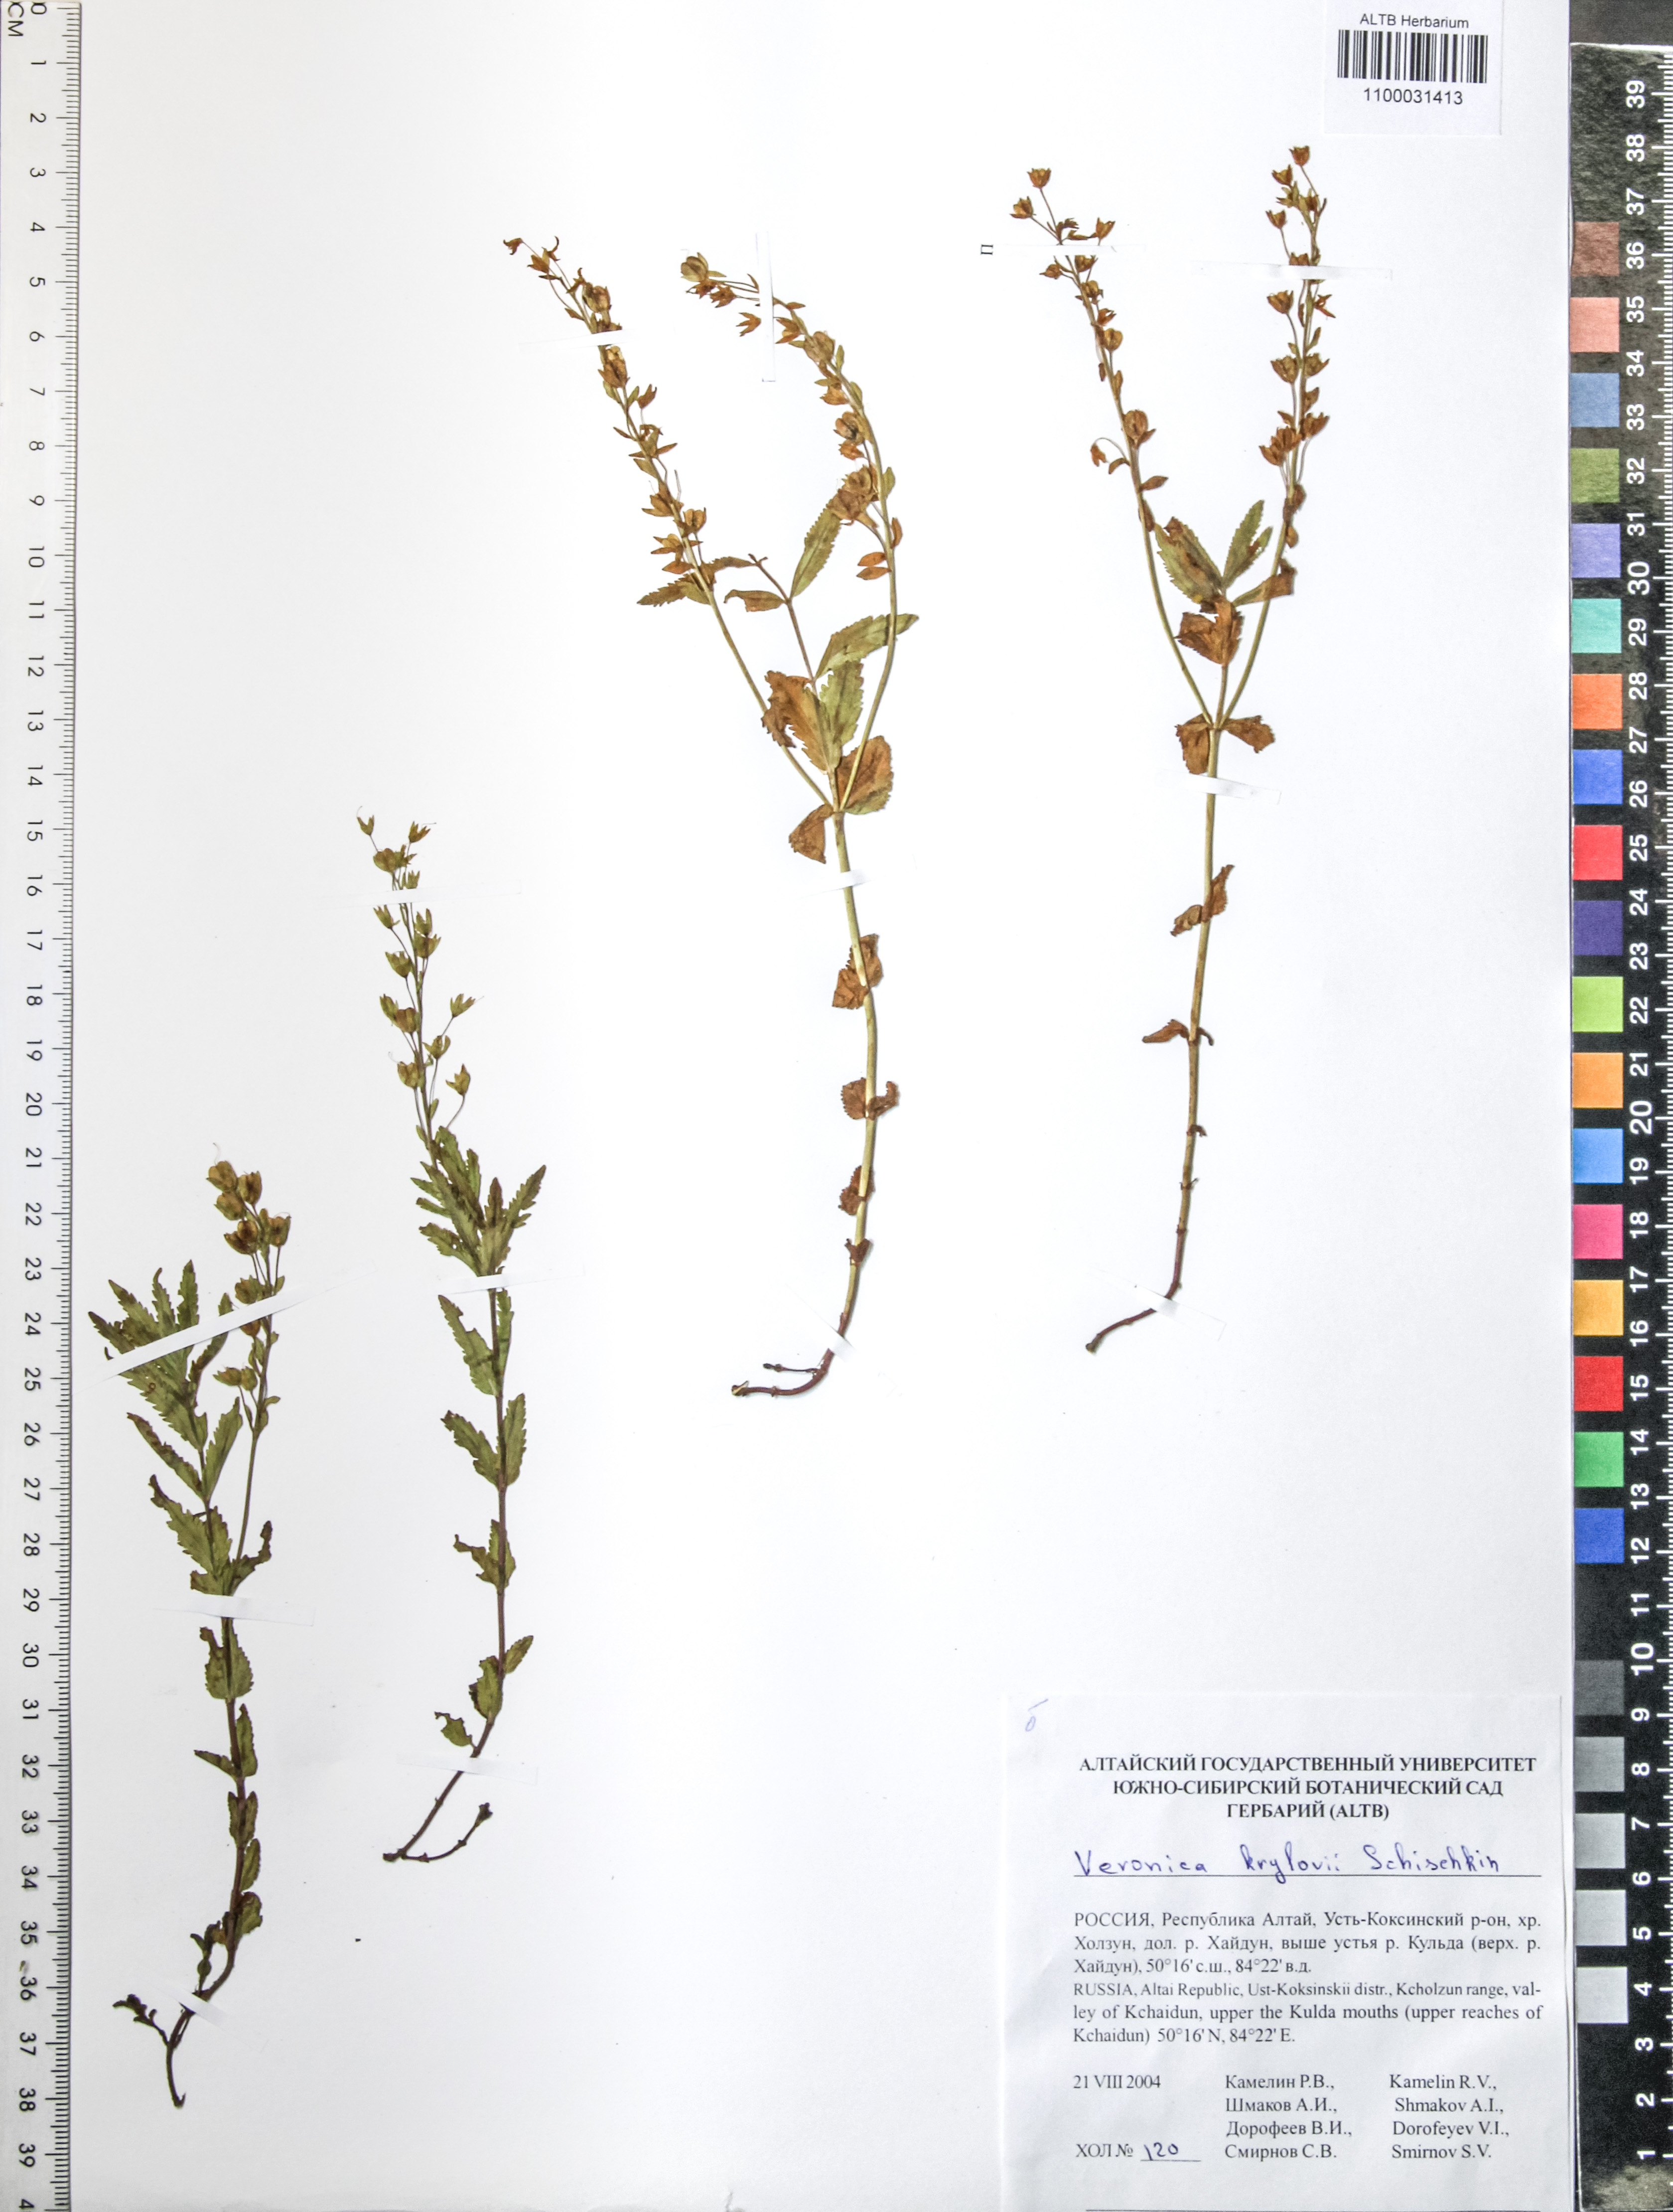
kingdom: Plantae
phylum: Tracheophyta
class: Magnoliopsida
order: Lamiales
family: Plantaginaceae
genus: Veronica
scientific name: Veronica krylovii
